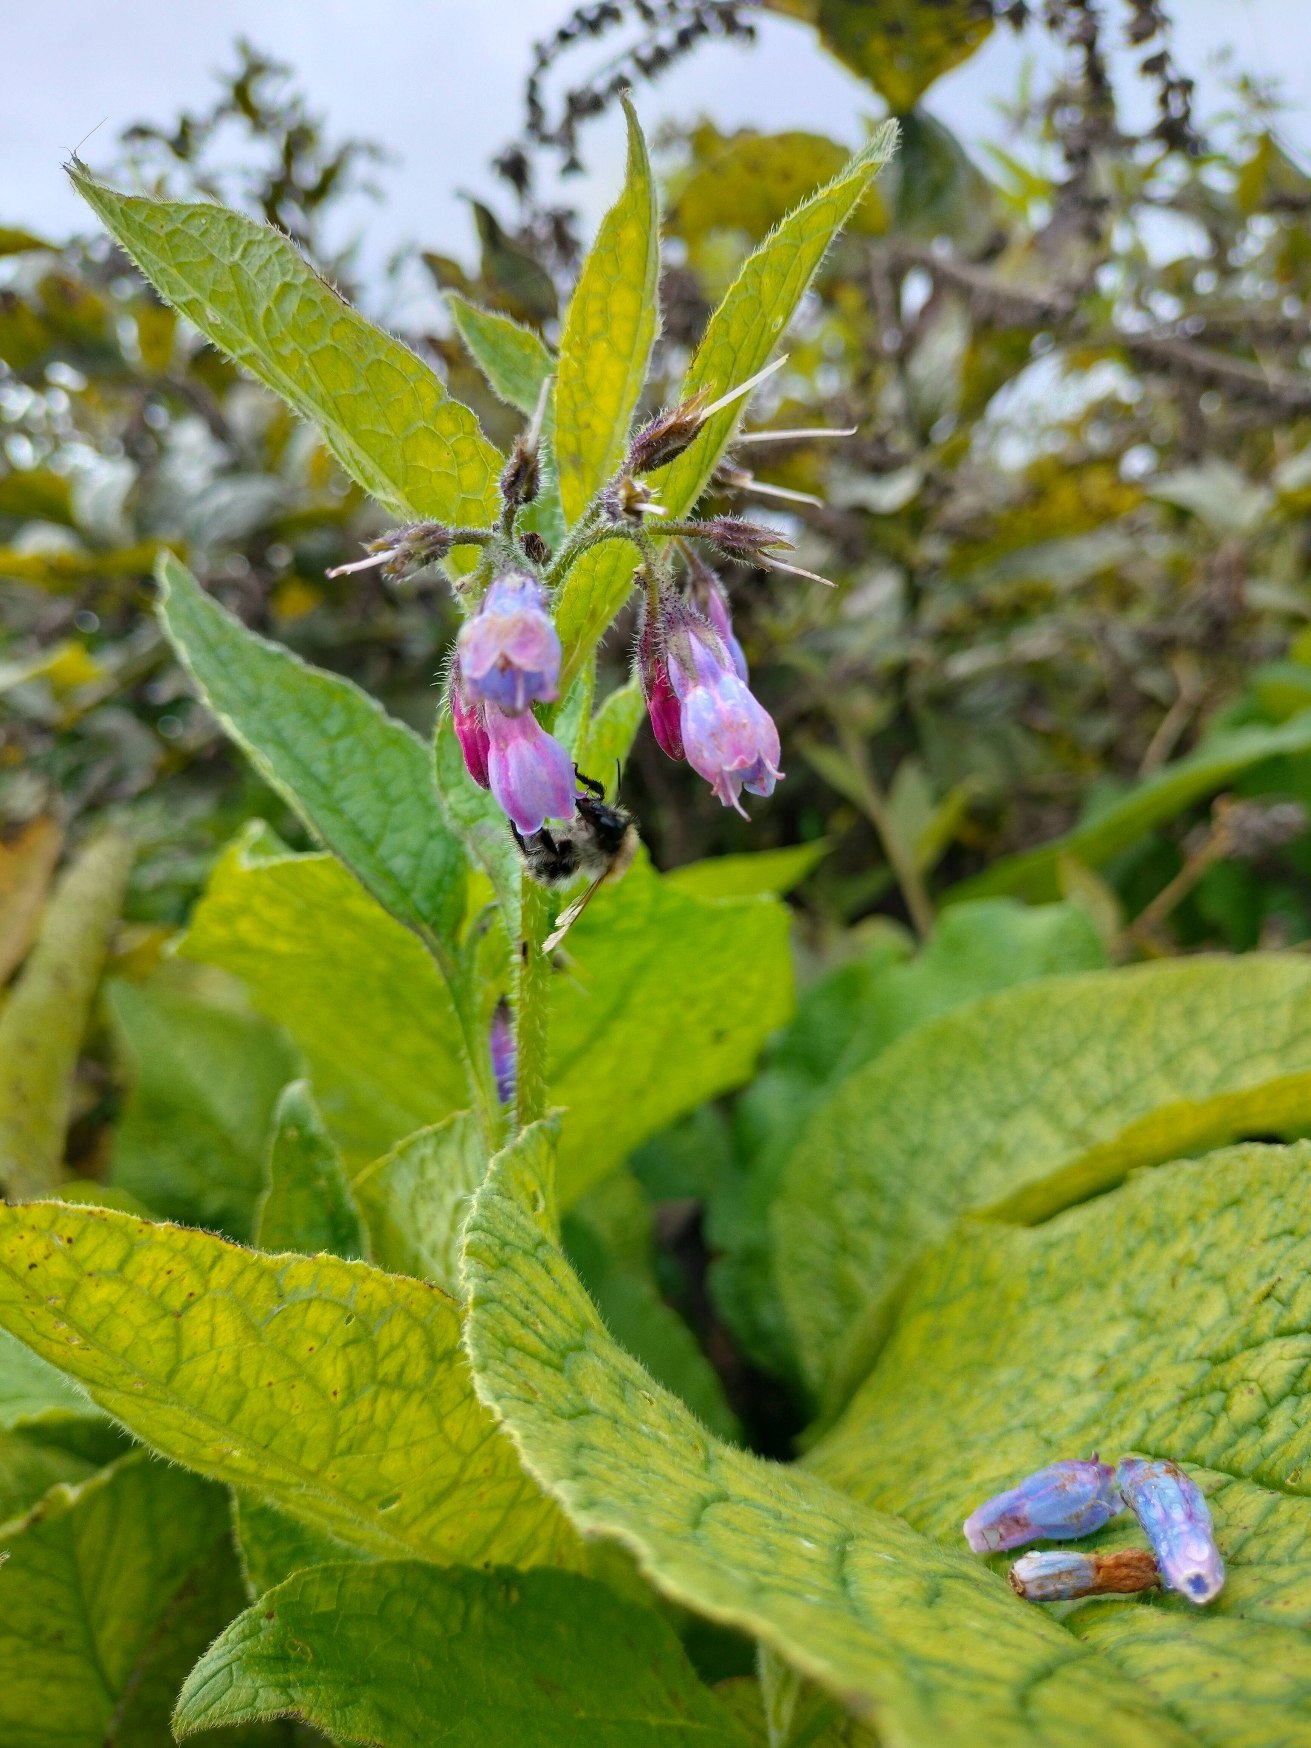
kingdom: Plantae
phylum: Tracheophyta
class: Magnoliopsida
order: Boraginales
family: Boraginaceae
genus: Symphytum
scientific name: Symphytum uplandicum
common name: Foder-kulsukker
